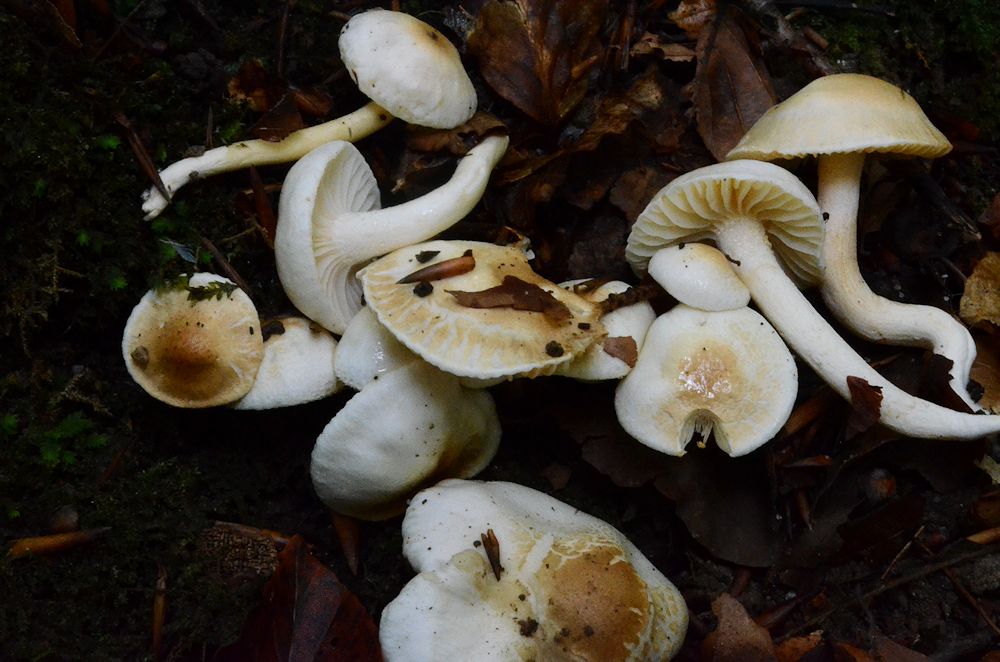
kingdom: Fungi
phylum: Basidiomycota
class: Agaricomycetes
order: Agaricales
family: Hygrophoraceae
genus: Hygrophorus
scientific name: Hygrophorus discoxanthus
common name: ildelugtende sneglehat
